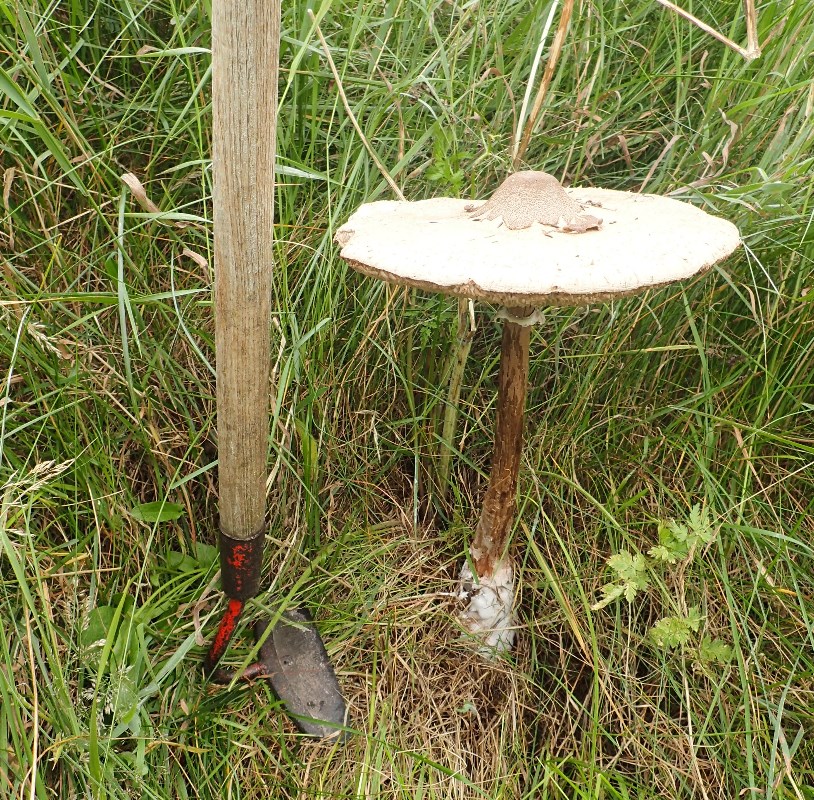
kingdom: Fungi
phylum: Basidiomycota
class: Agaricomycetes
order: Agaricales
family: Agaricaceae
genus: Macrolepiota
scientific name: Macrolepiota procera
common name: stor kæmpeparasolhat
